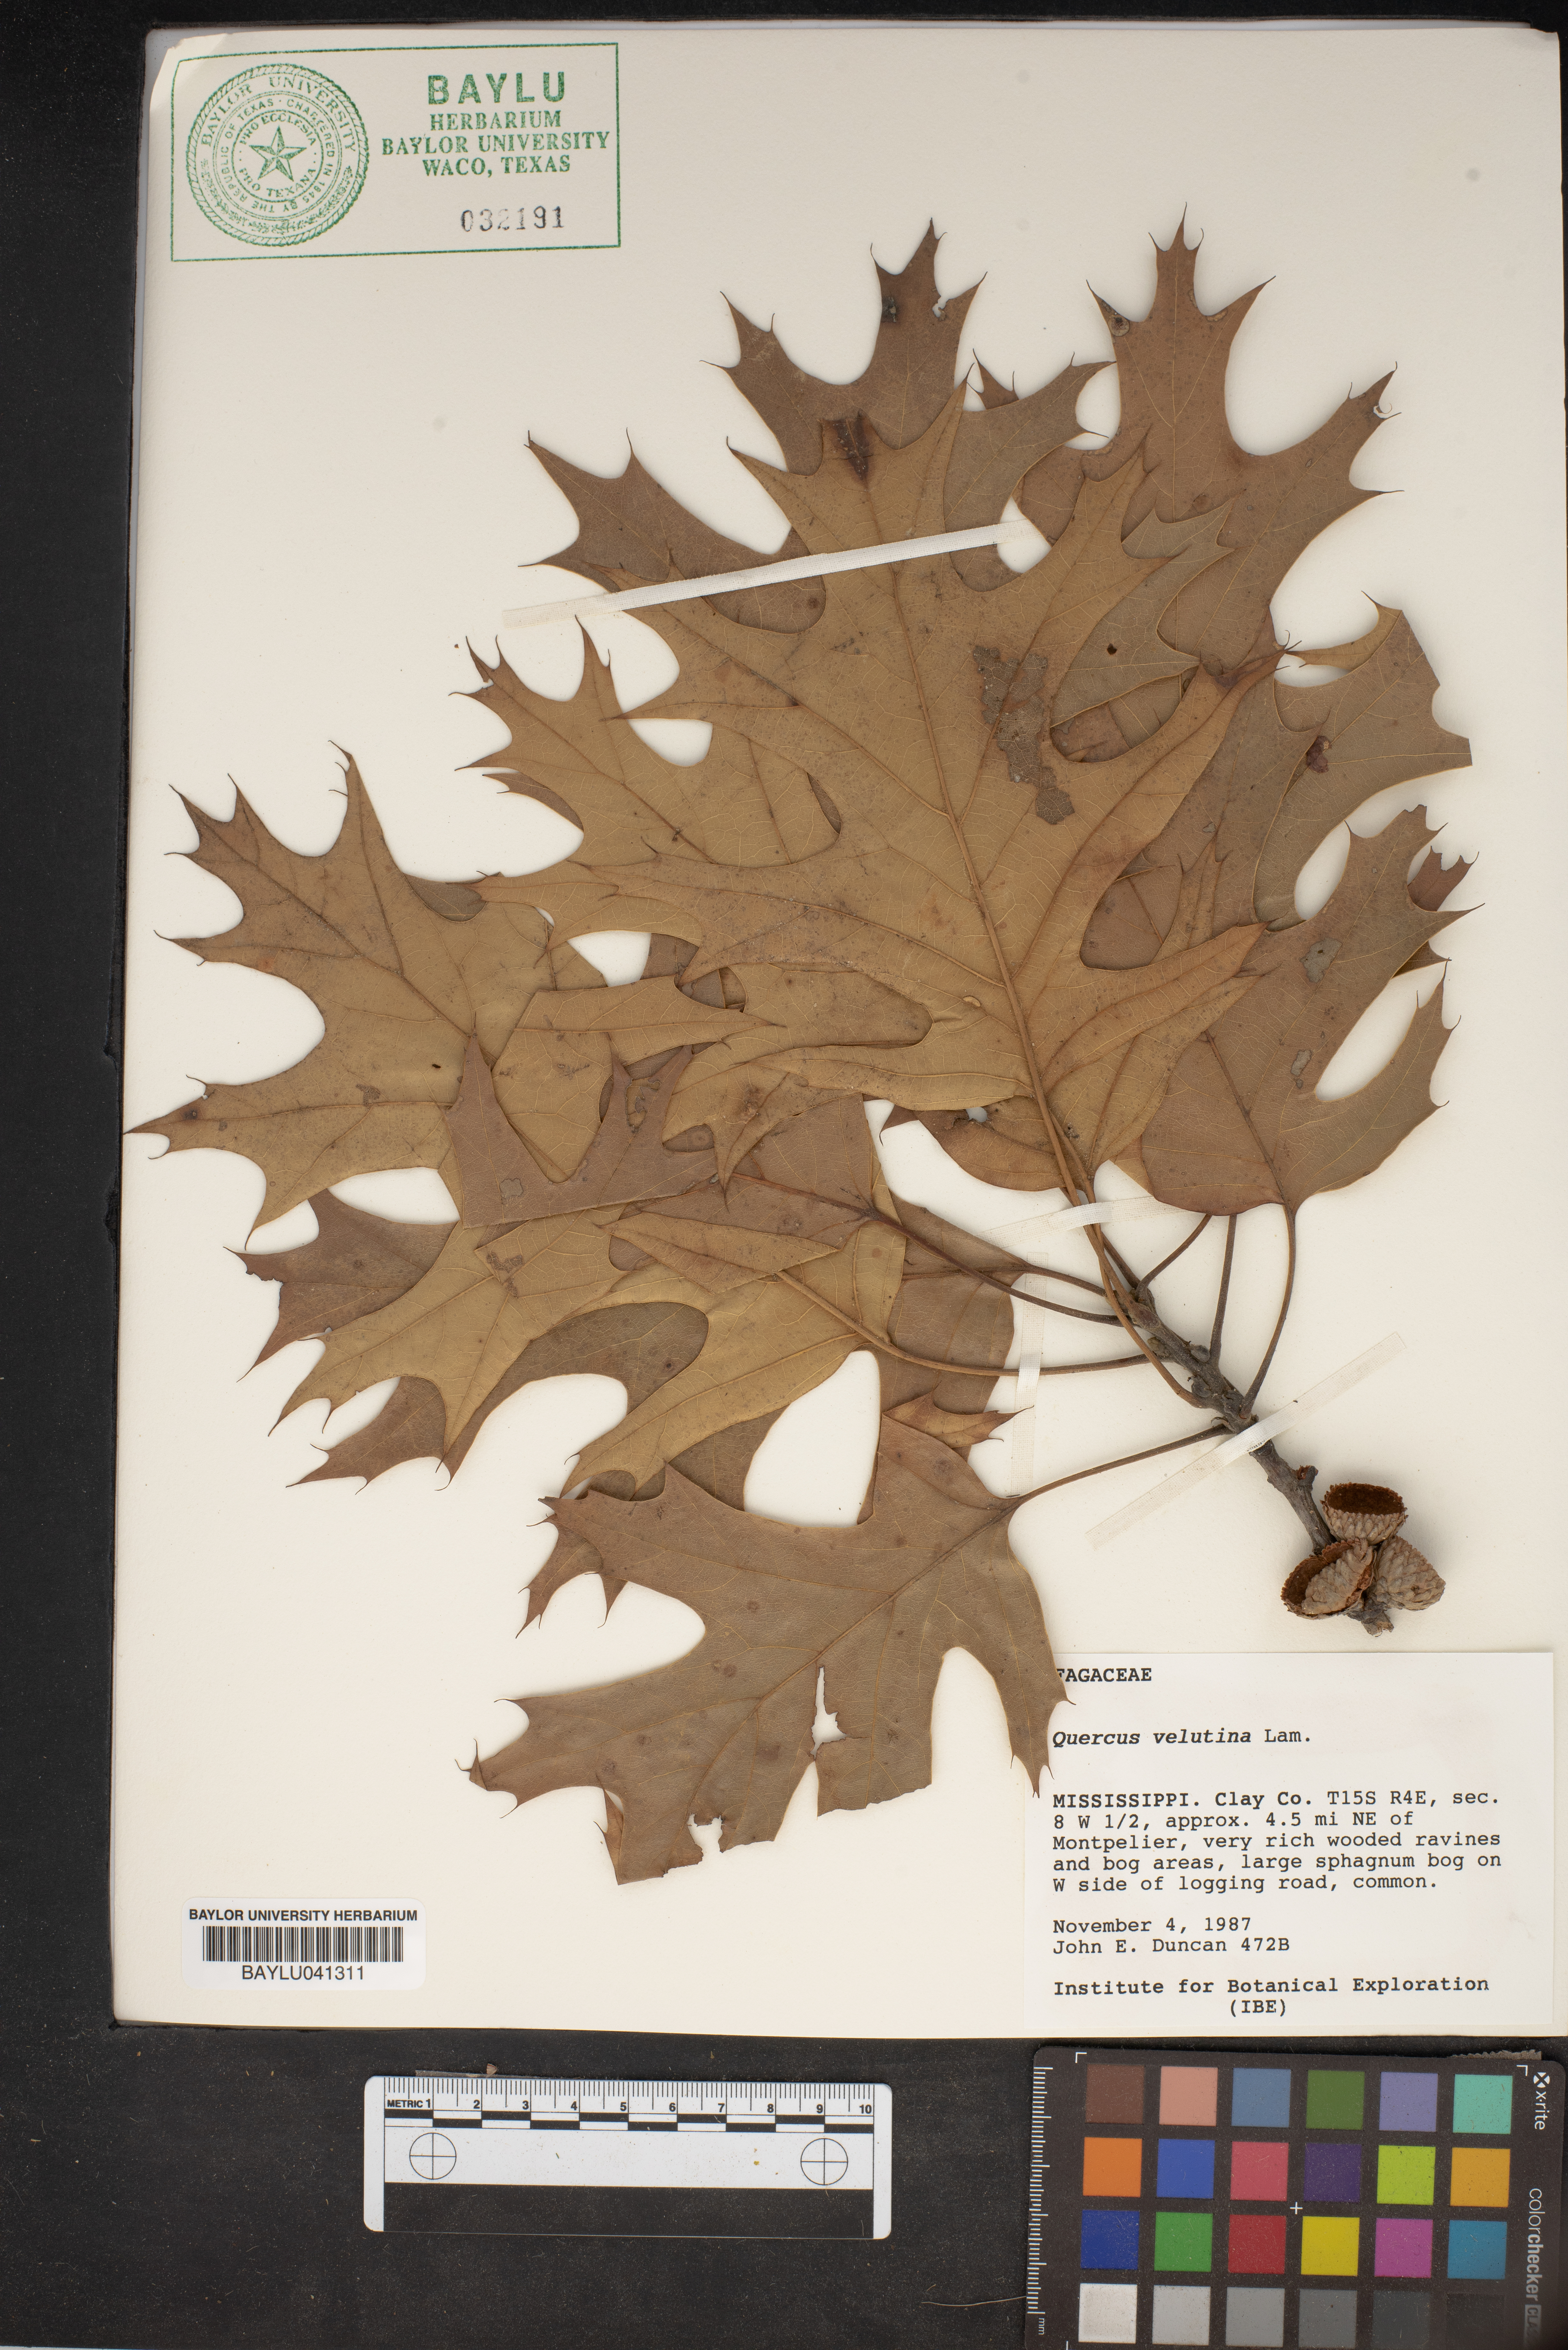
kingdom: Plantae
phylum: Tracheophyta
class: Magnoliopsida
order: Fagales
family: Fagaceae
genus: Quercus
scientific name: Quercus velutina
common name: Black oak
